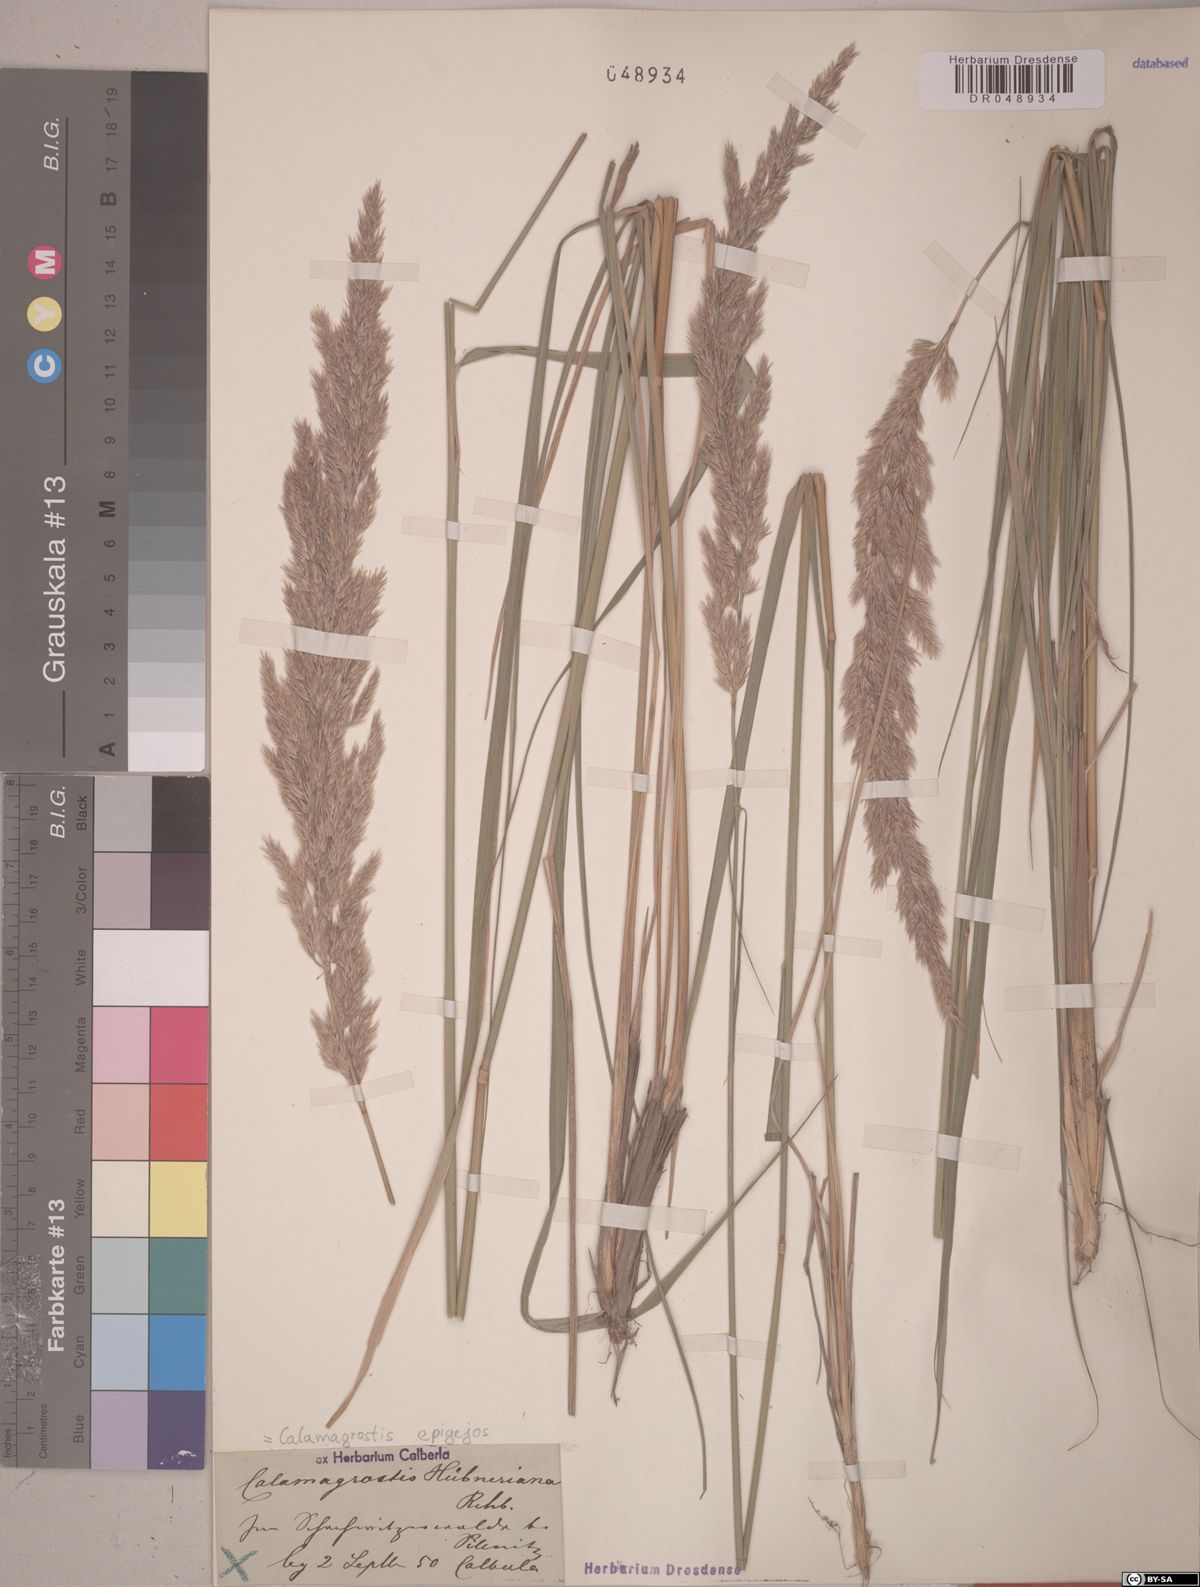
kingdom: Plantae
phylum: Tracheophyta
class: Liliopsida
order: Poales
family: Poaceae
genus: Calamagrostis
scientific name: Calamagrostis epigejos
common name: Wood small-reed
